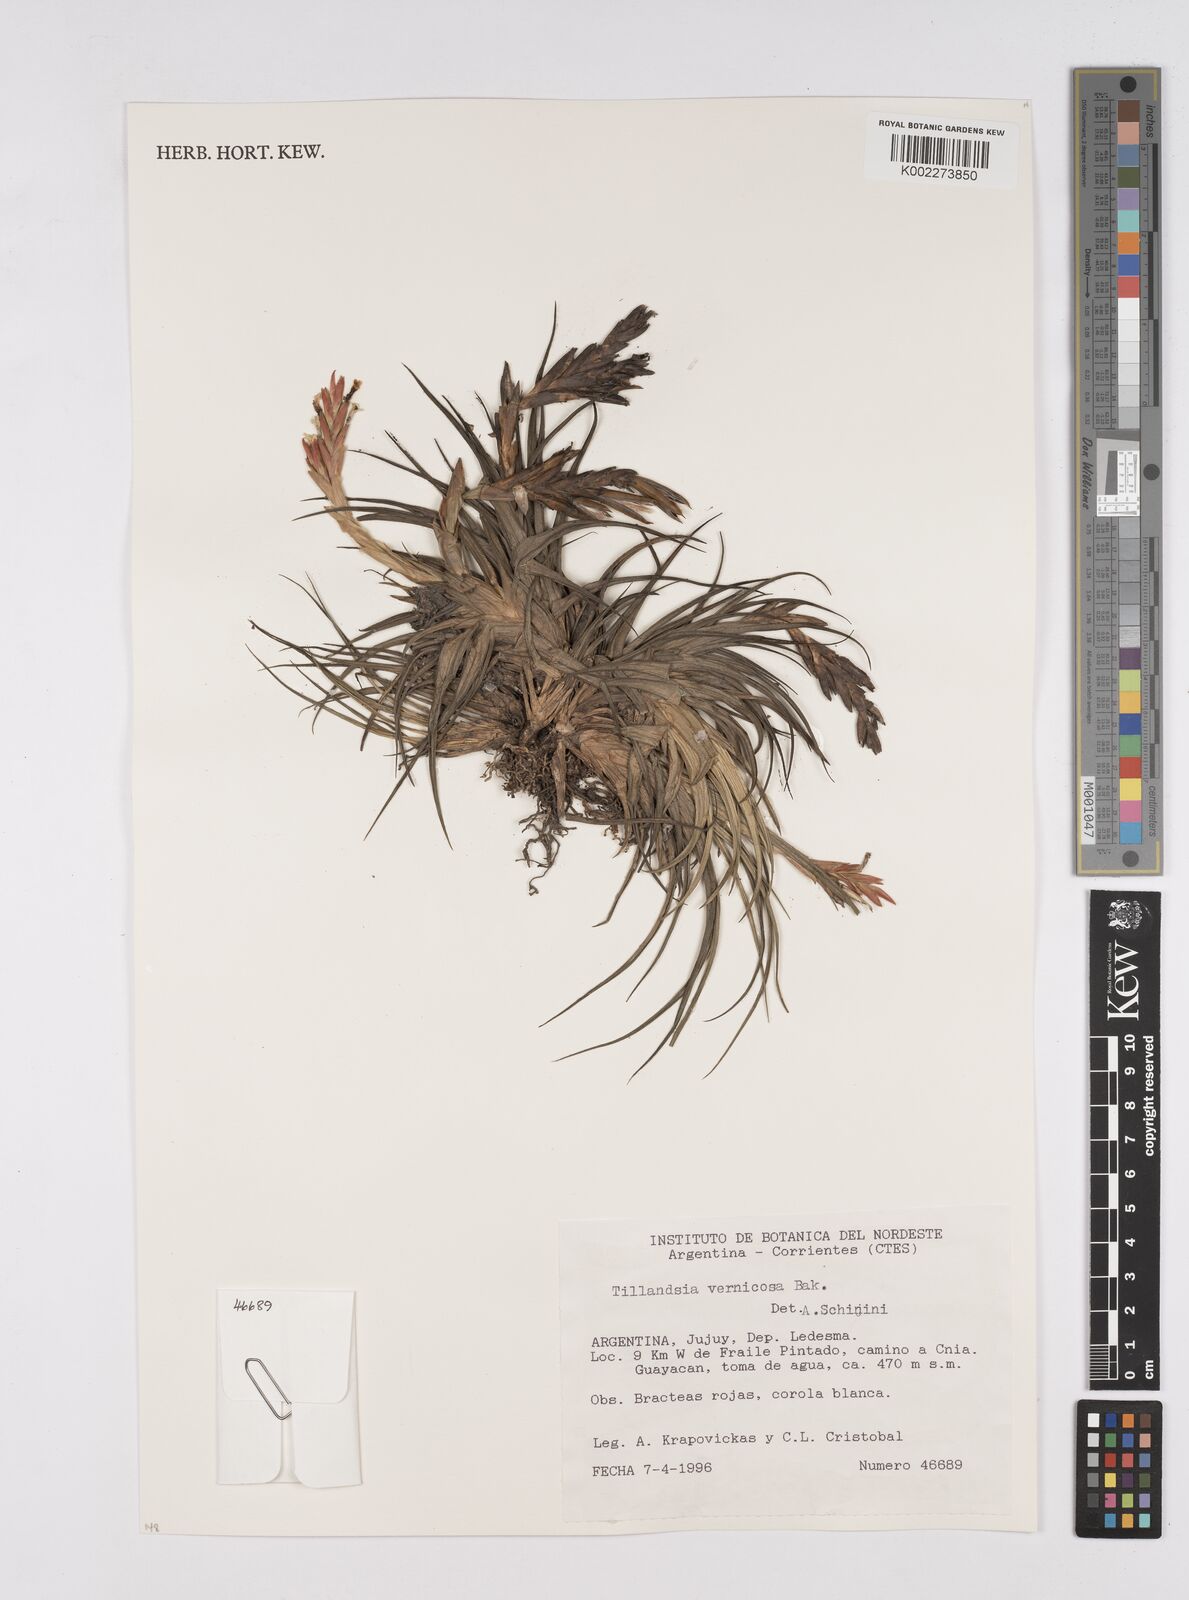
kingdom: Plantae
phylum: Tracheophyta
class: Liliopsida
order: Poales
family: Bromeliaceae
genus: Tillandsia
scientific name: Tillandsia vernicosa
